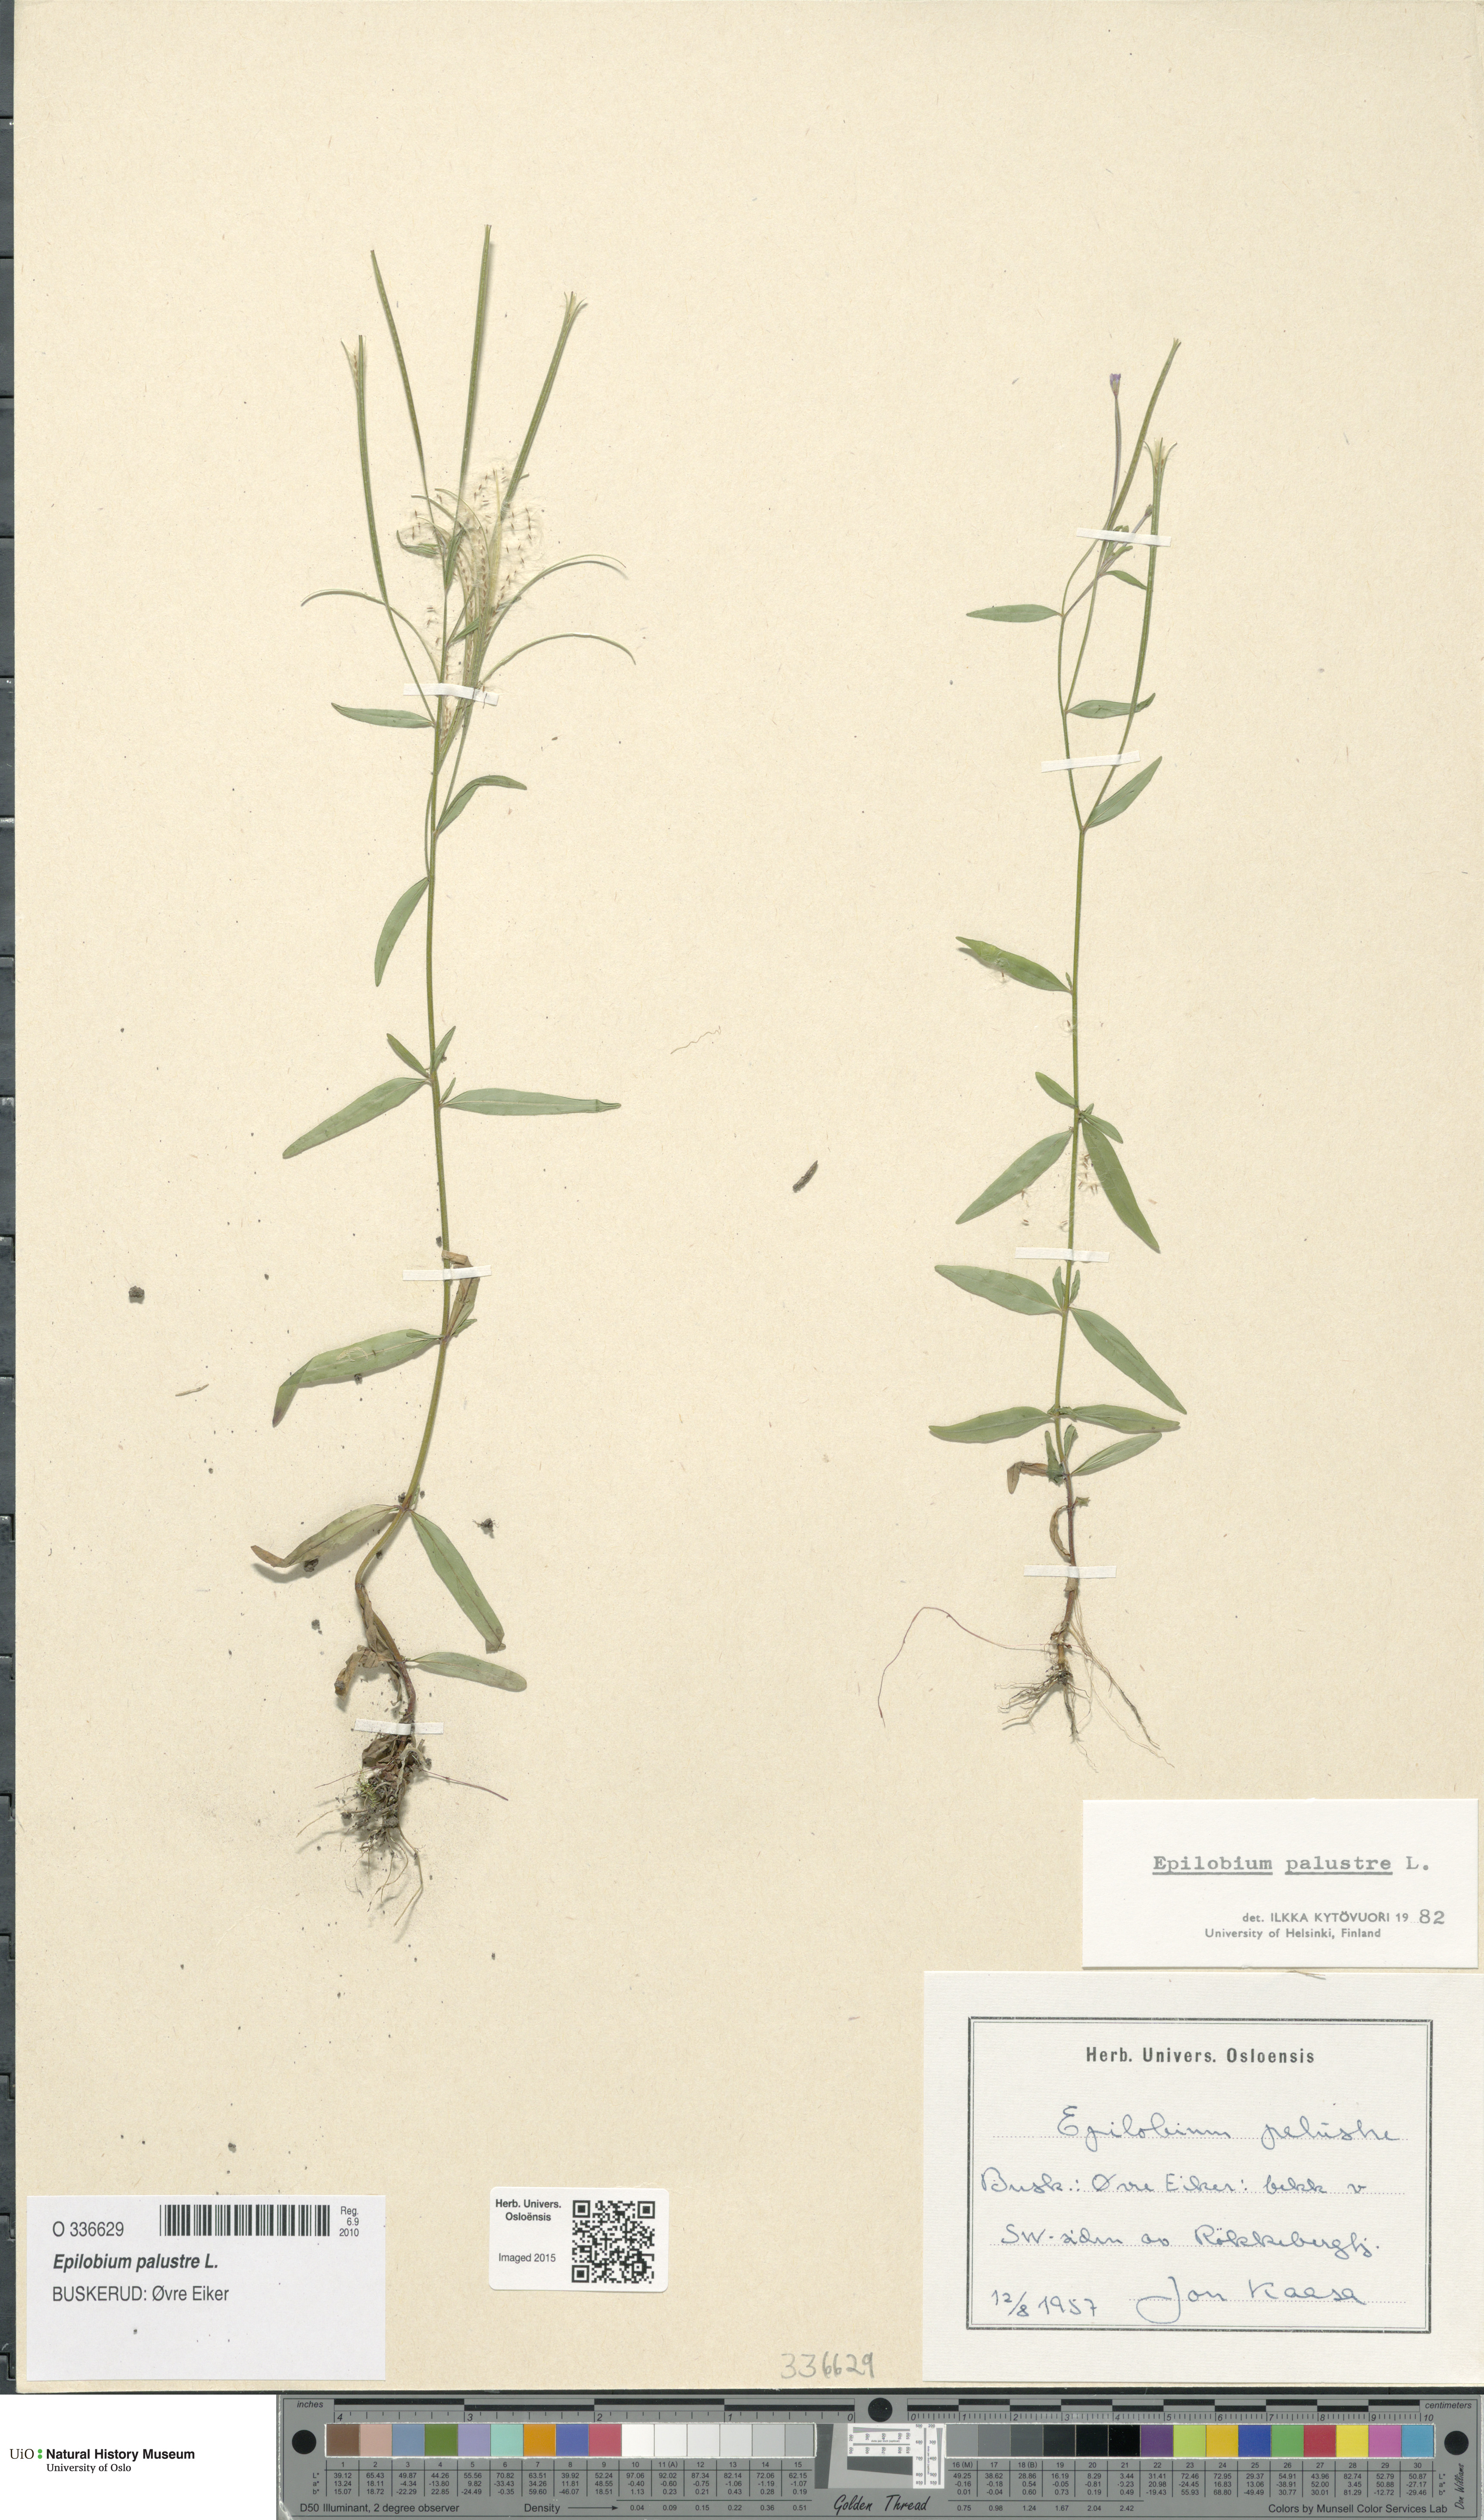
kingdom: Plantae
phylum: Tracheophyta
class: Magnoliopsida
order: Myrtales
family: Onagraceae
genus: Epilobium
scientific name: Epilobium palustre
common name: Marsh willowherb
